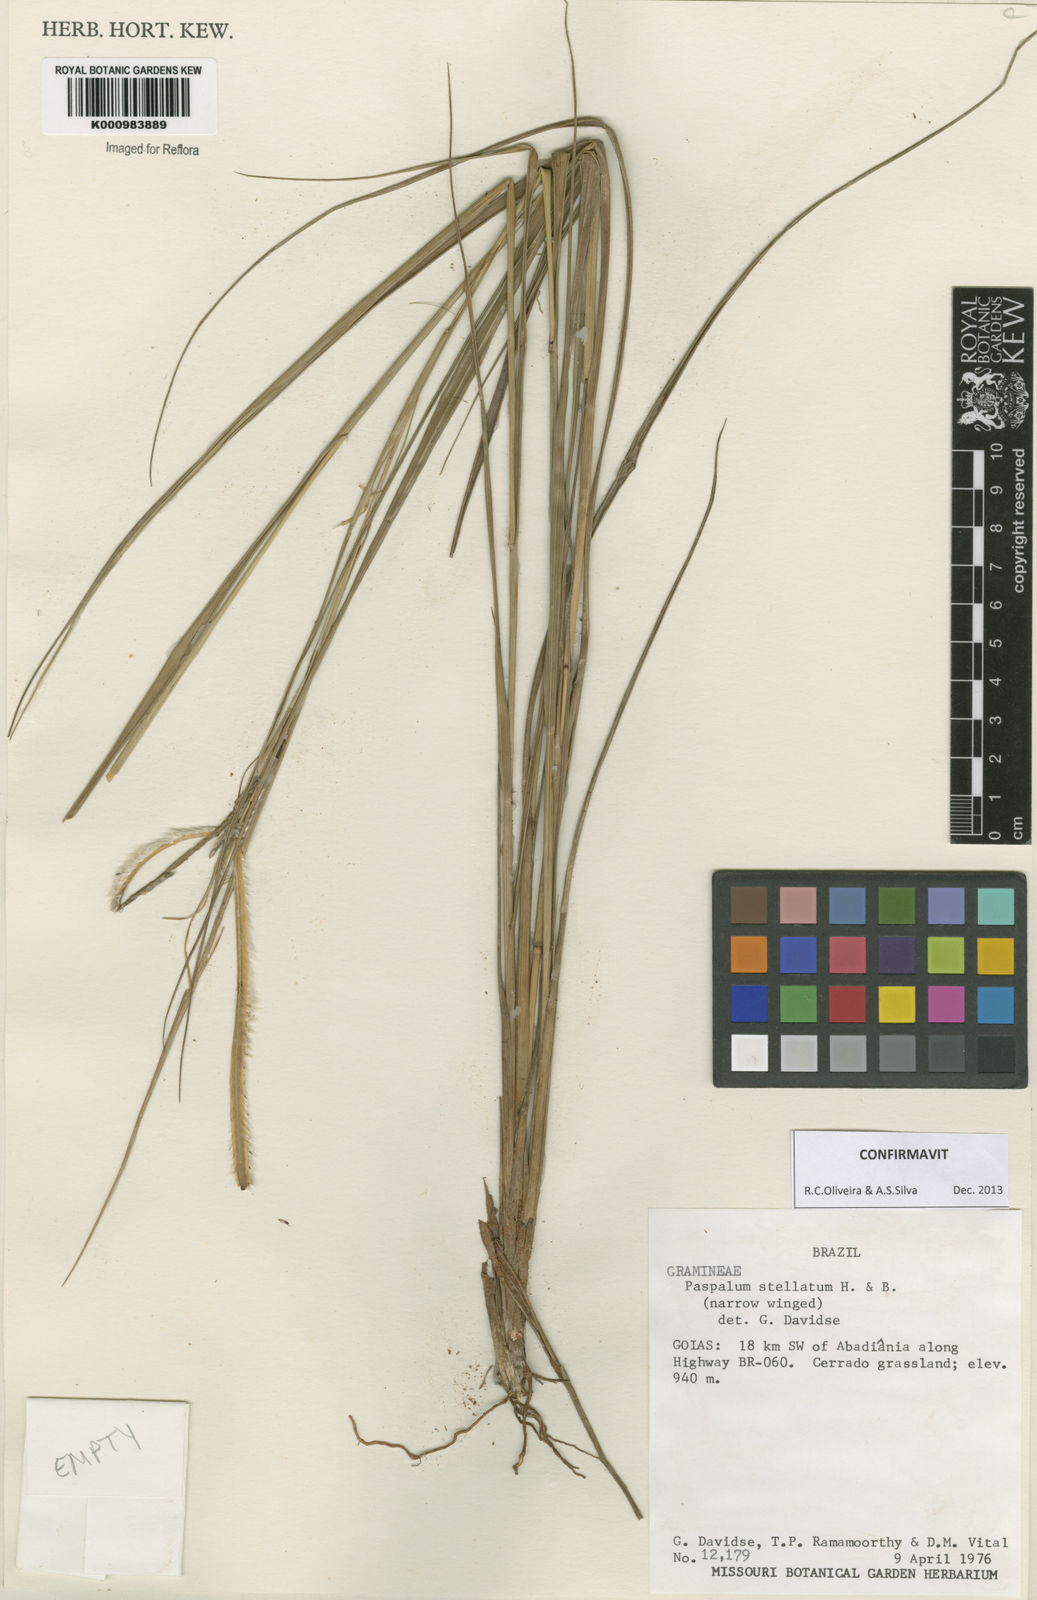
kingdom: Plantae
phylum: Tracheophyta
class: Liliopsida
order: Poales
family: Poaceae
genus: Paspalum
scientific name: Paspalum
